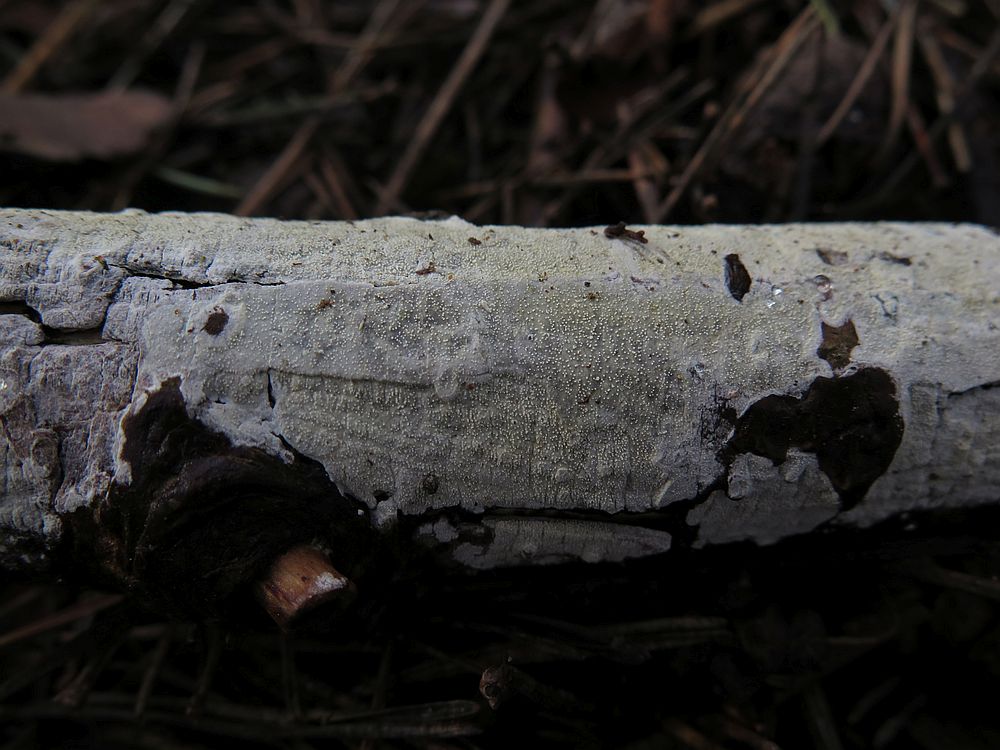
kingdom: Fungi
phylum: Basidiomycota
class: Agaricomycetes
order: Corticiales
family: Corticiaceae
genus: Lyomyces
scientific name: Lyomyces crustosus
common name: vortet hyldehinde
